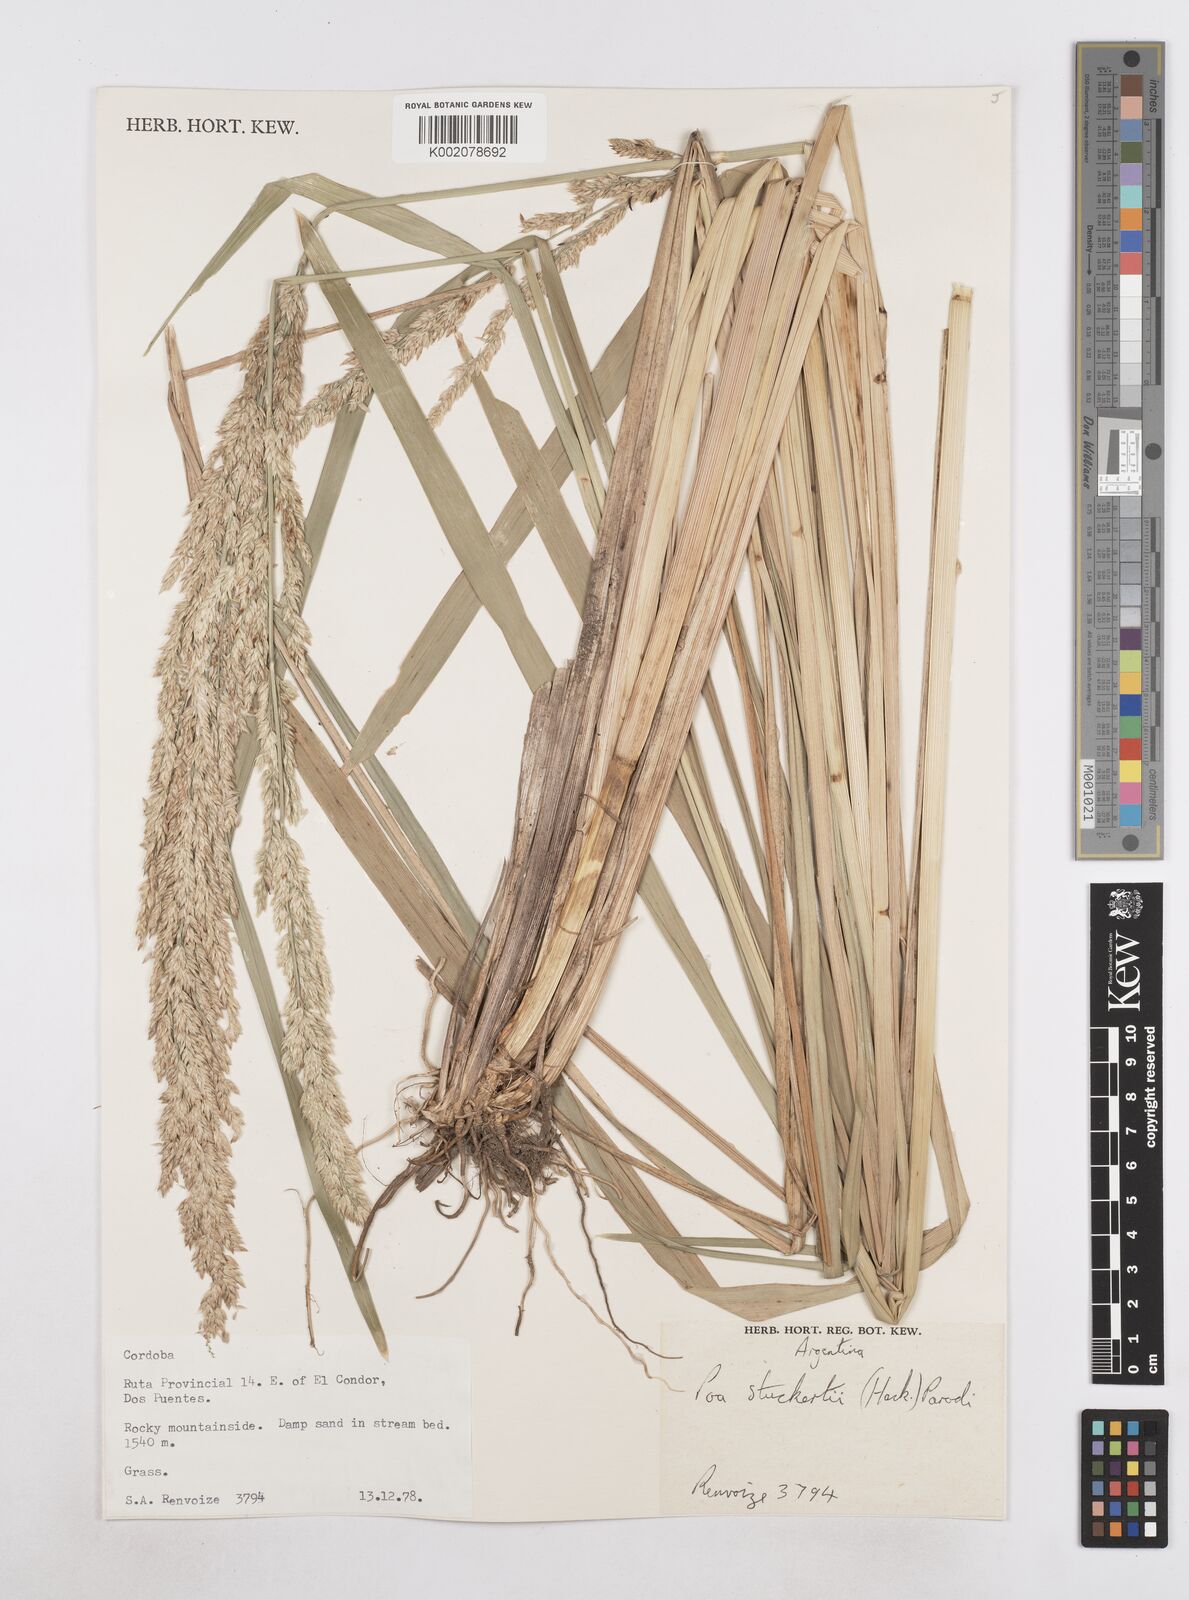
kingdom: Plantae
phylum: Tracheophyta
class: Liliopsida
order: Poales
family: Poaceae
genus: Poa
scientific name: Poa stuckertii
